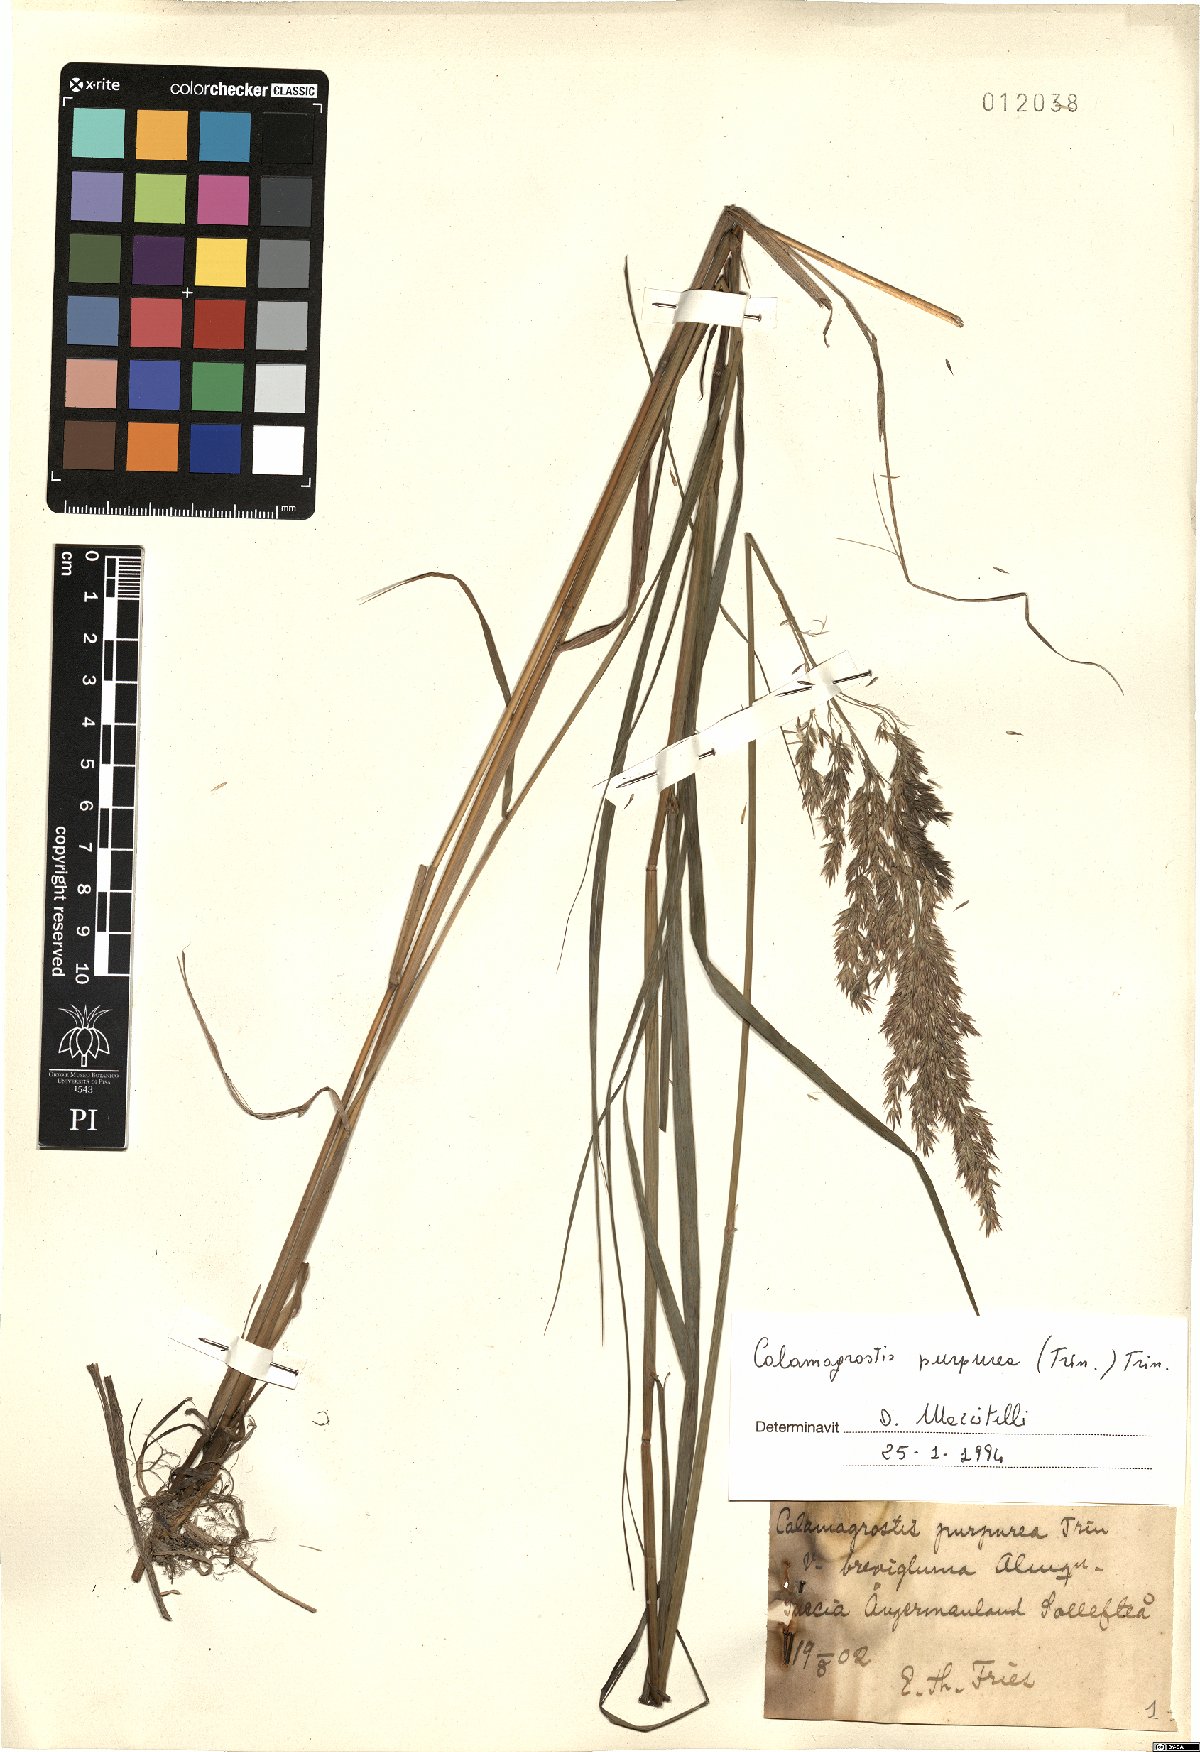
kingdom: Plantae
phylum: Tracheophyta
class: Liliopsida
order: Poales
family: Poaceae
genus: Calamagrostis
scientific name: Calamagrostis purpurea
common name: Scandinavian small-reed
